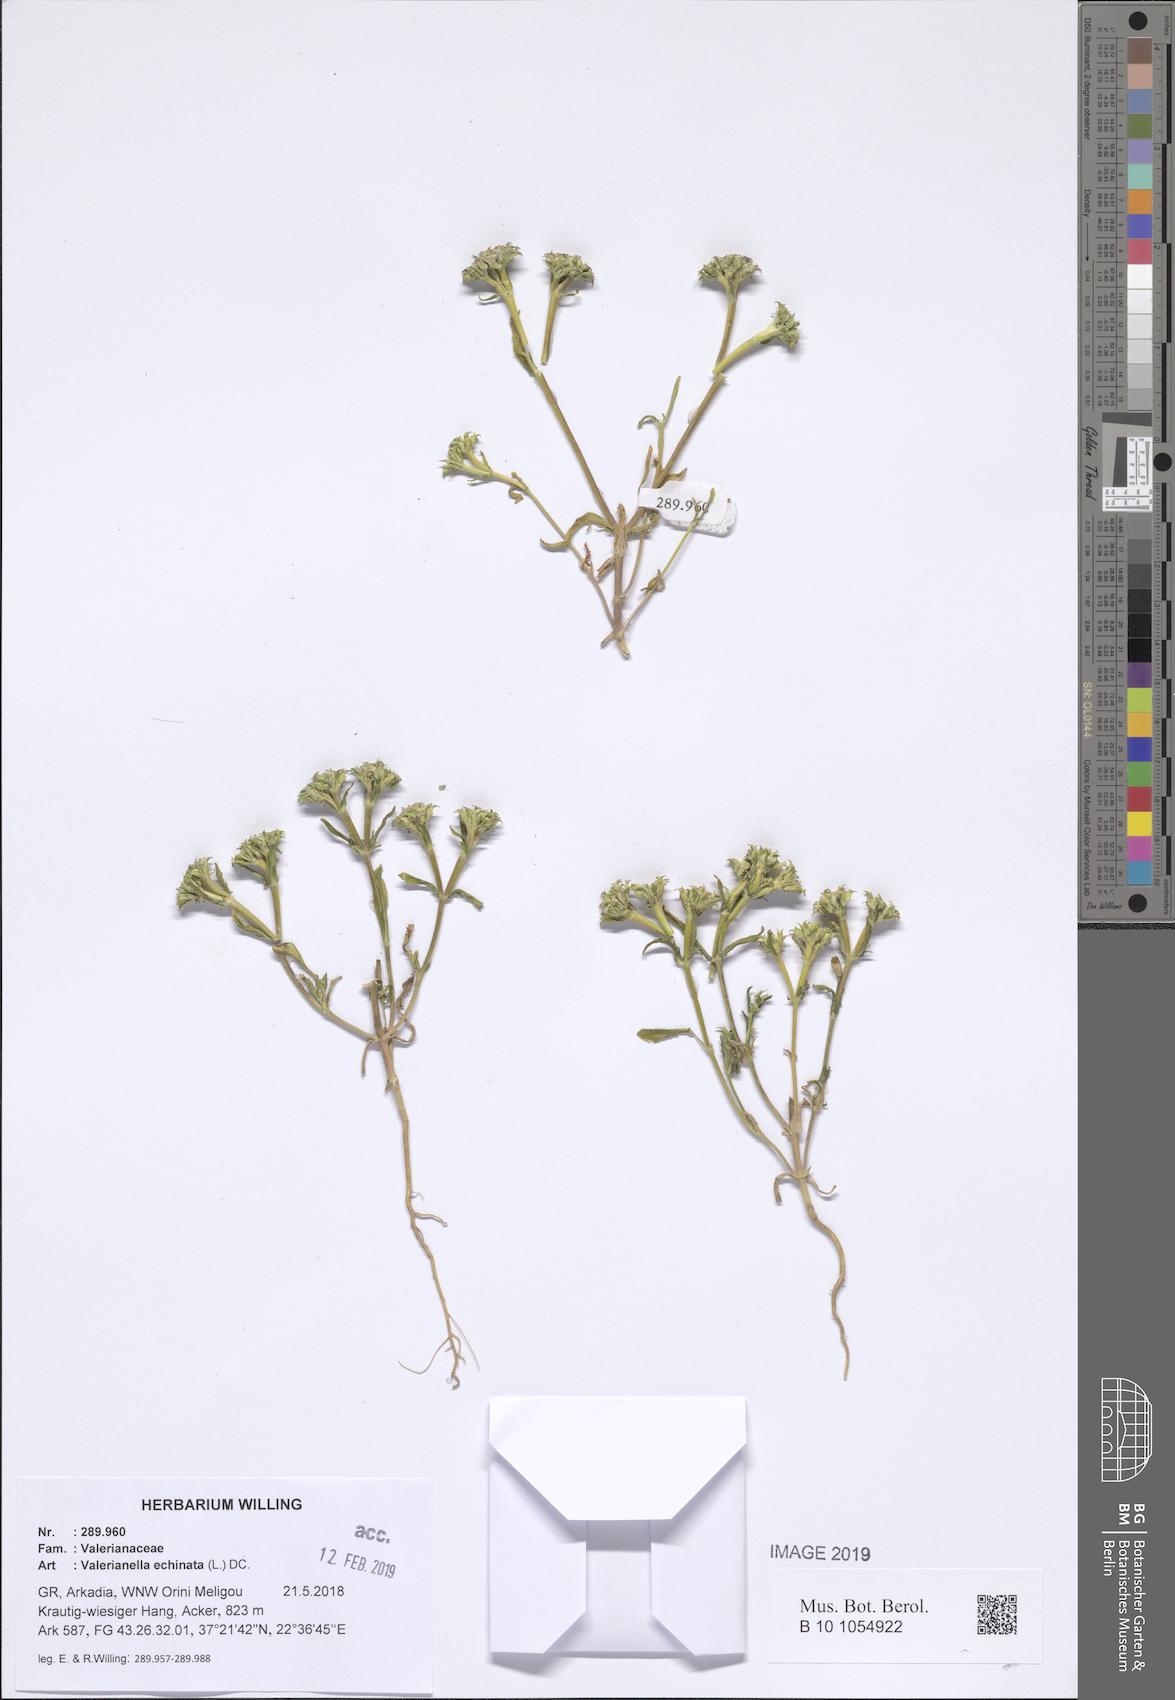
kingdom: Plantae
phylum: Tracheophyta
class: Magnoliopsida
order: Dipsacales
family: Caprifoliaceae
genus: Valerianella
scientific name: Valerianella echinata
